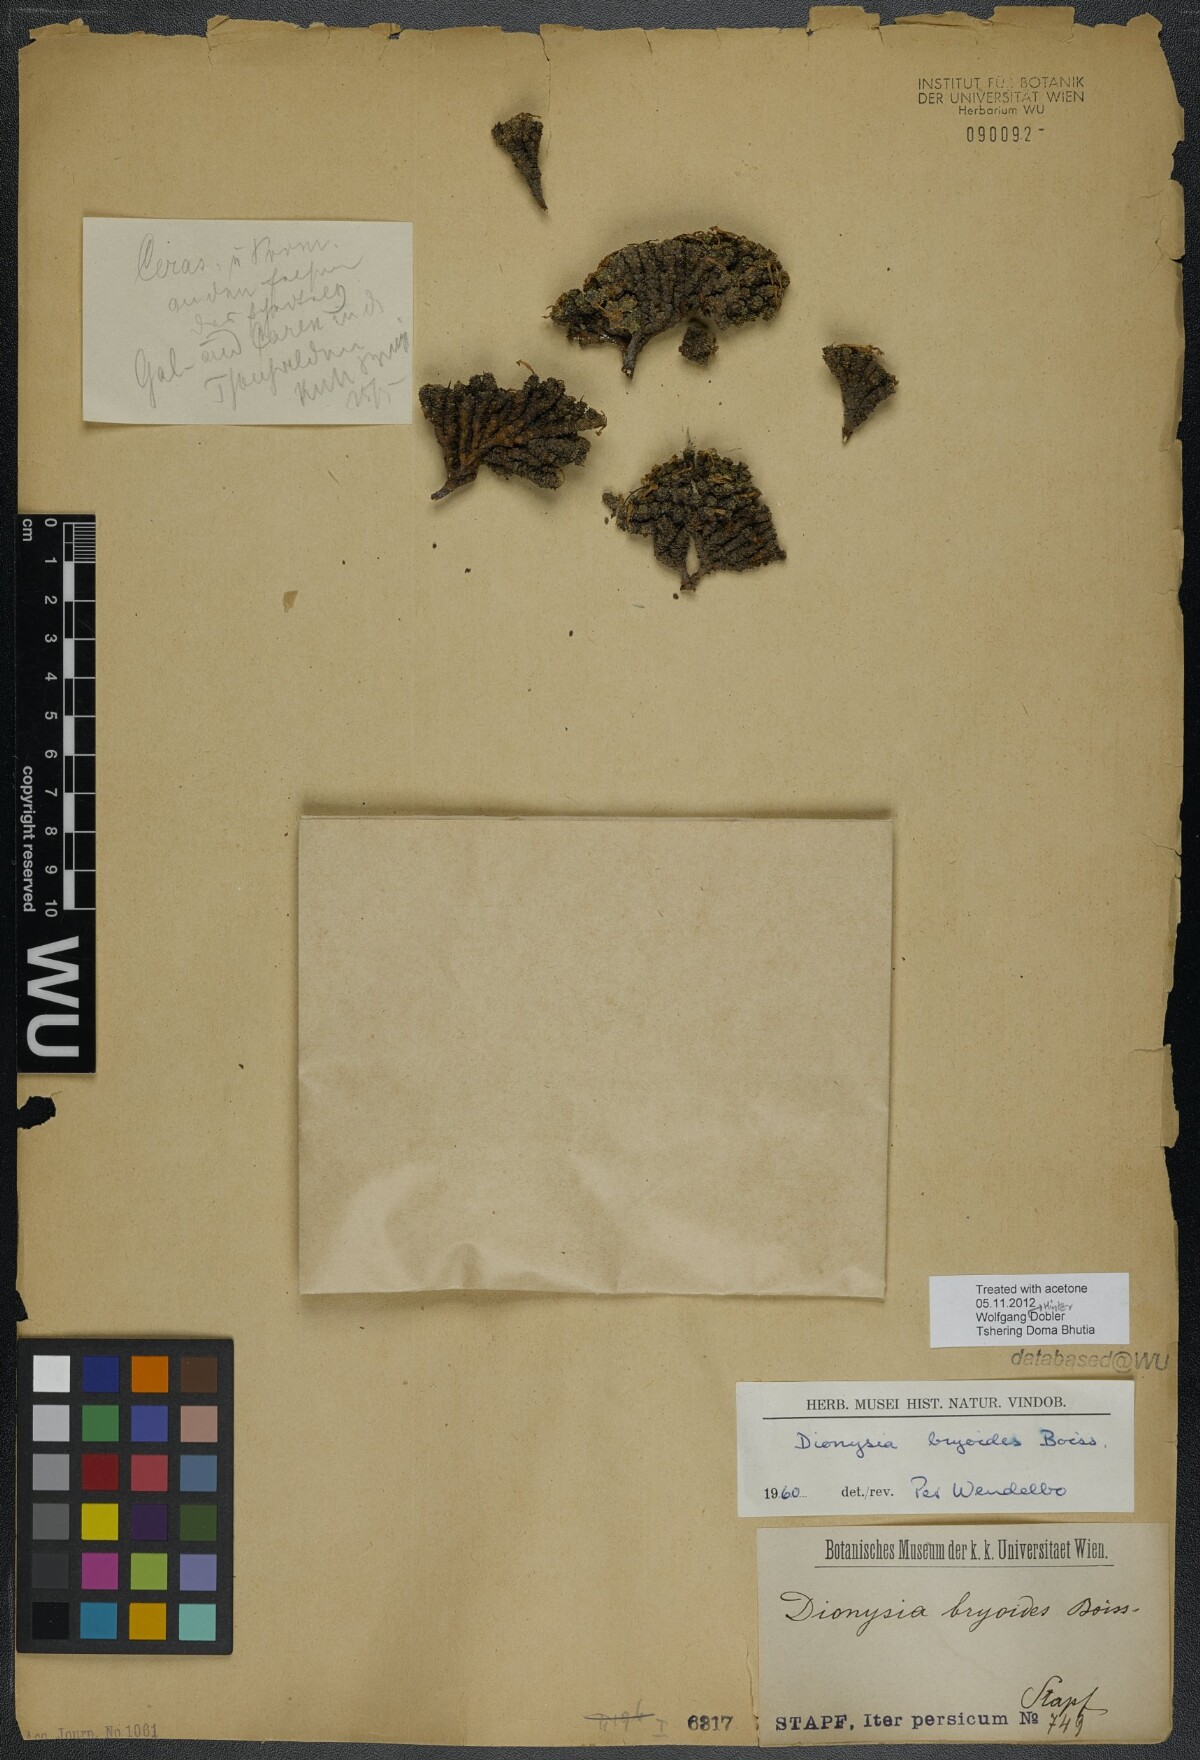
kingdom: Plantae
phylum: Tracheophyta
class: Magnoliopsida
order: Ericales
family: Primulaceae
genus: Dionysia
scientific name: Dionysia bryoides
